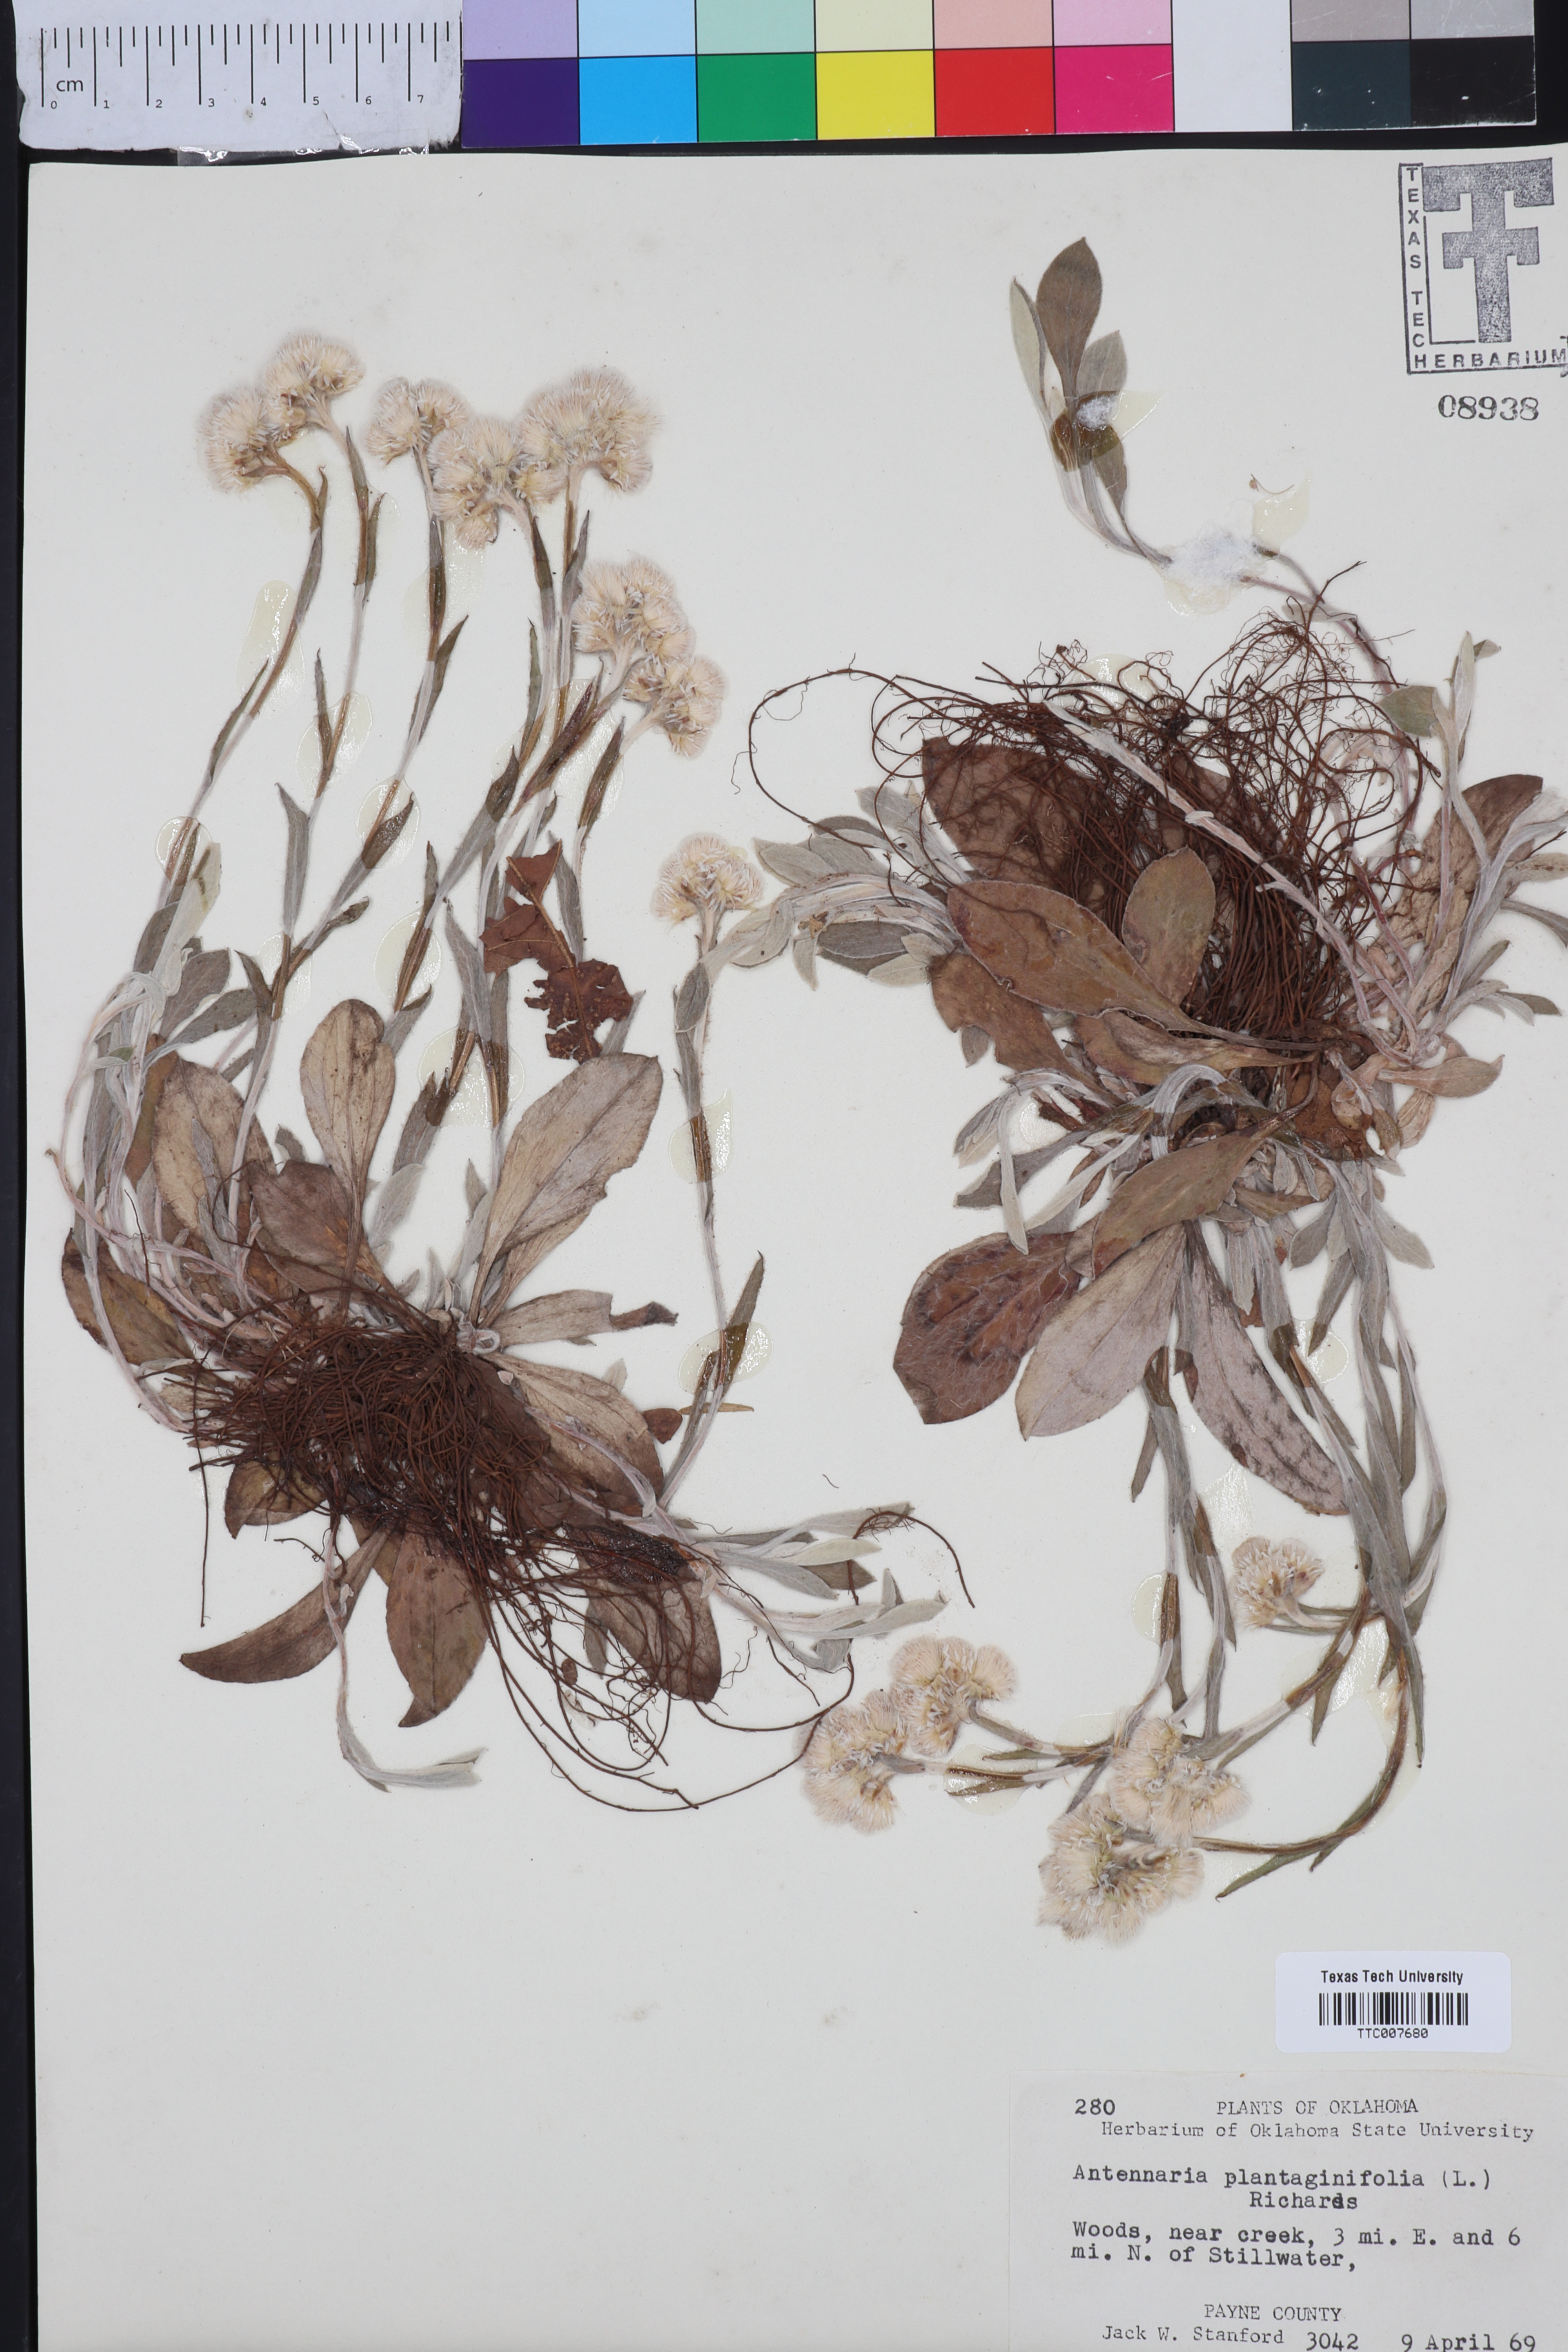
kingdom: Plantae
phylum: Tracheophyta
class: Magnoliopsida
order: Asterales
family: Asteraceae
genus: Antennaria
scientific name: Antennaria plantaginifolia
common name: Plantain-leaved pussytoes
